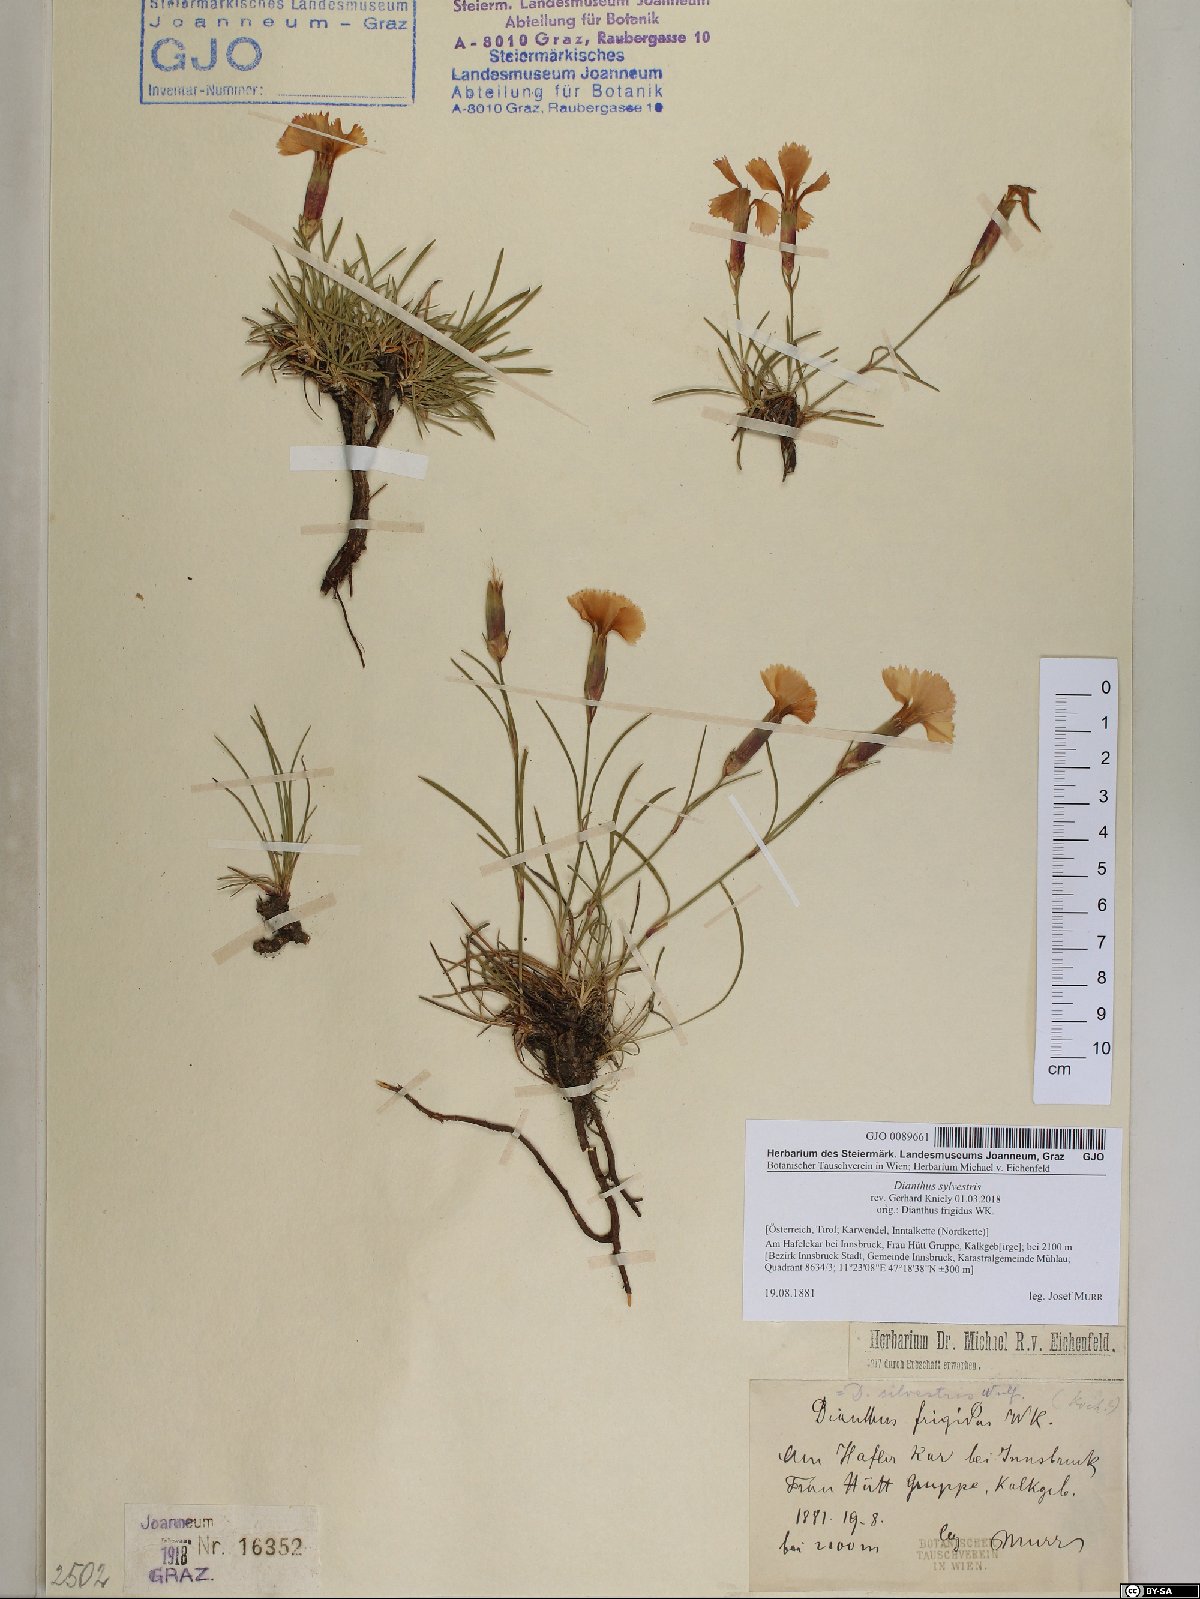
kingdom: Plantae
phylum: Tracheophyta
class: Magnoliopsida
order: Caryophyllales
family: Caryophyllaceae
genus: Dianthus
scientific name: Dianthus sylvestris
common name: Wood pink
